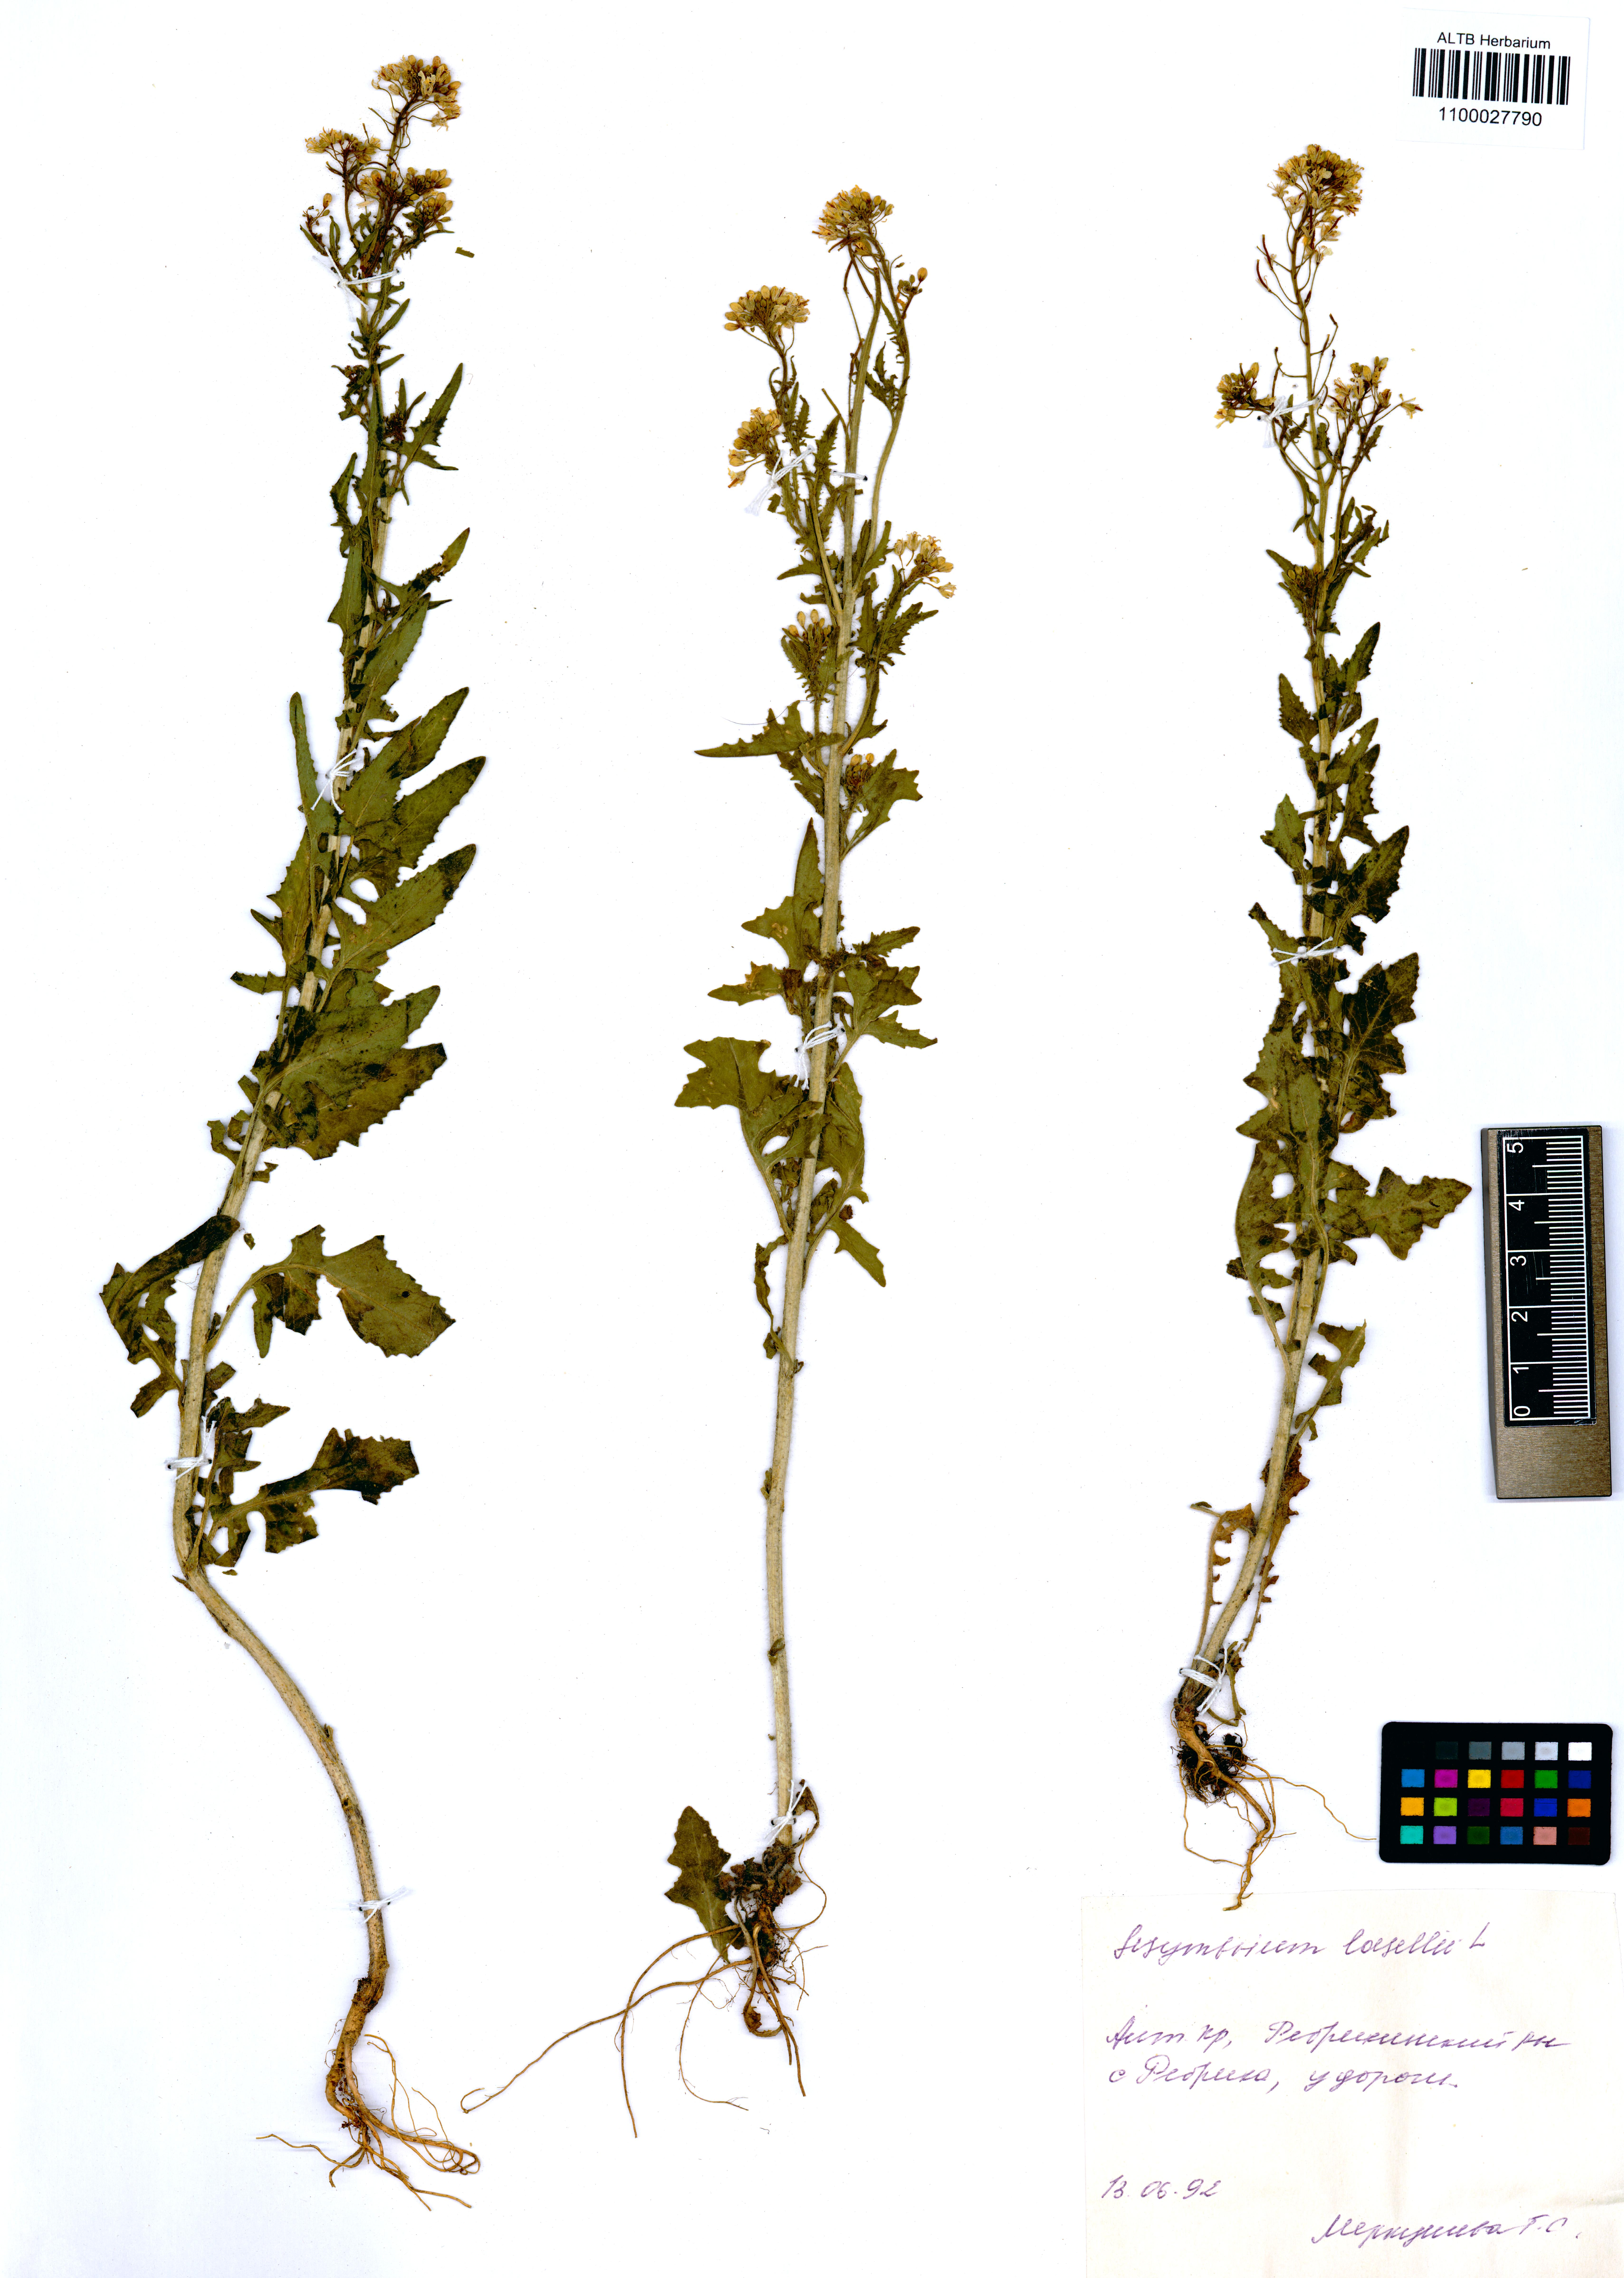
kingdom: Plantae
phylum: Tracheophyta
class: Magnoliopsida
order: Brassicales
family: Brassicaceae
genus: Sisymbrium
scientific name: Sisymbrium loeselii
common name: False london-rocket
